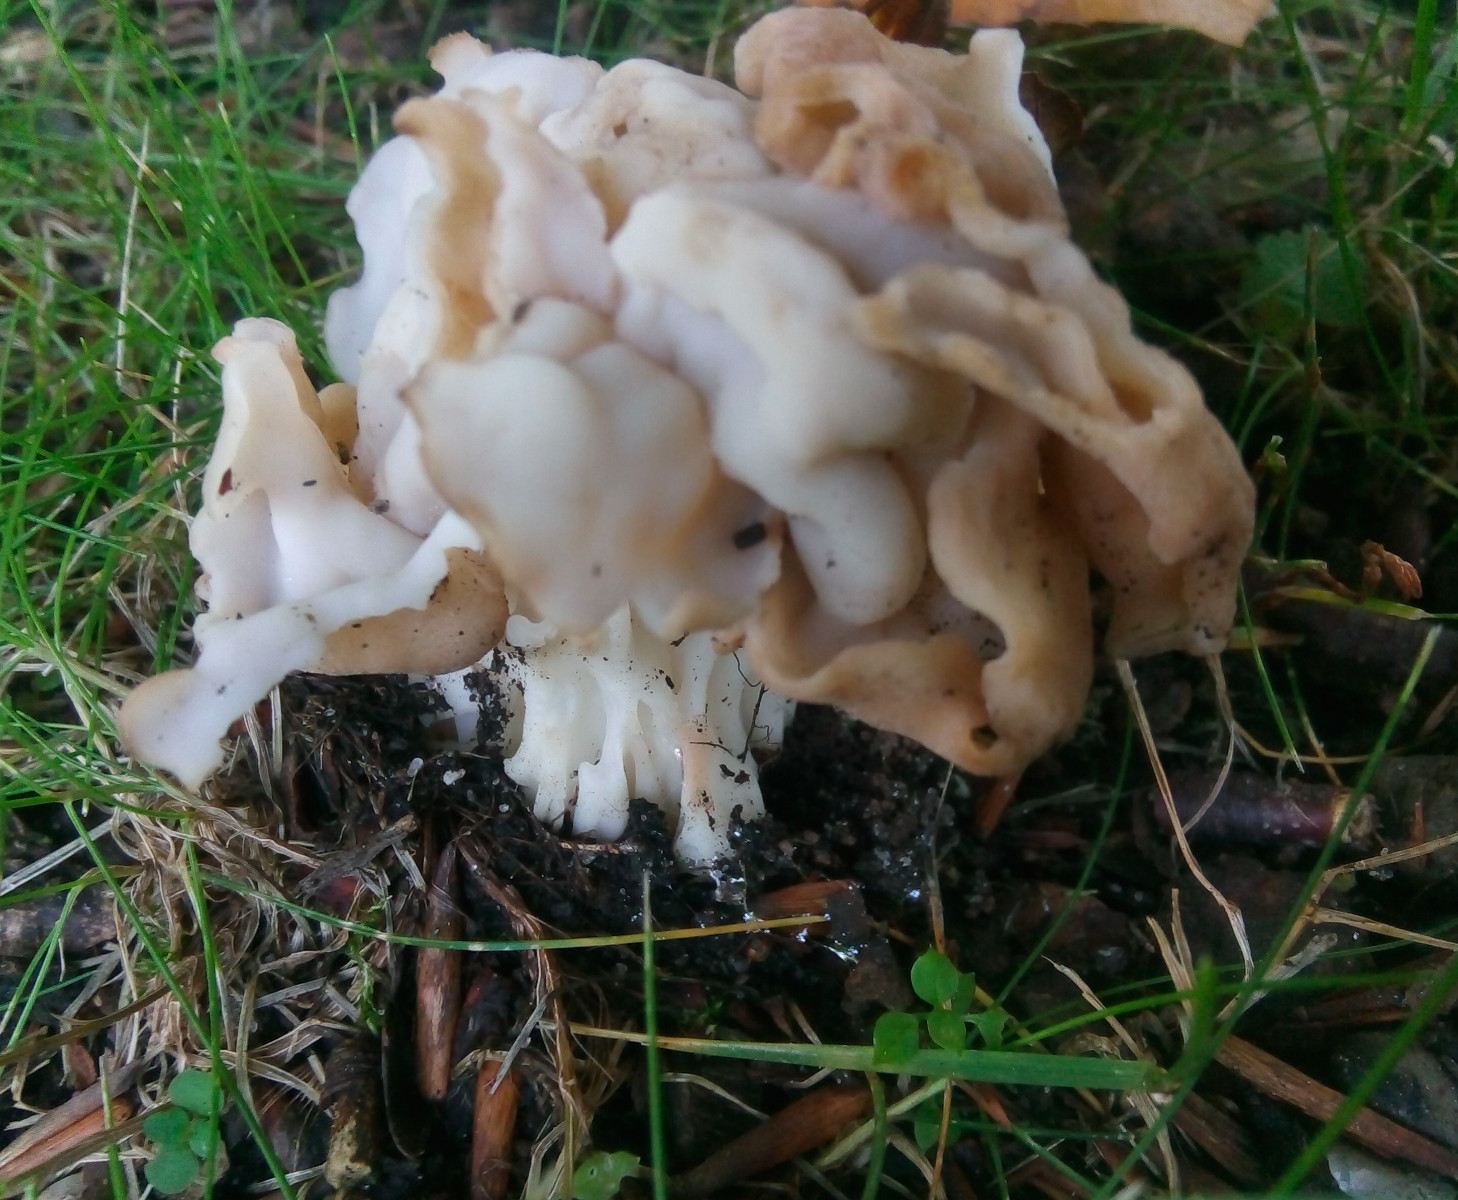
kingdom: Fungi
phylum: Ascomycota
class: Pezizomycetes
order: Pezizales
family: Helvellaceae
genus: Helvella
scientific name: Helvella crispa
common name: kruset foldhat
